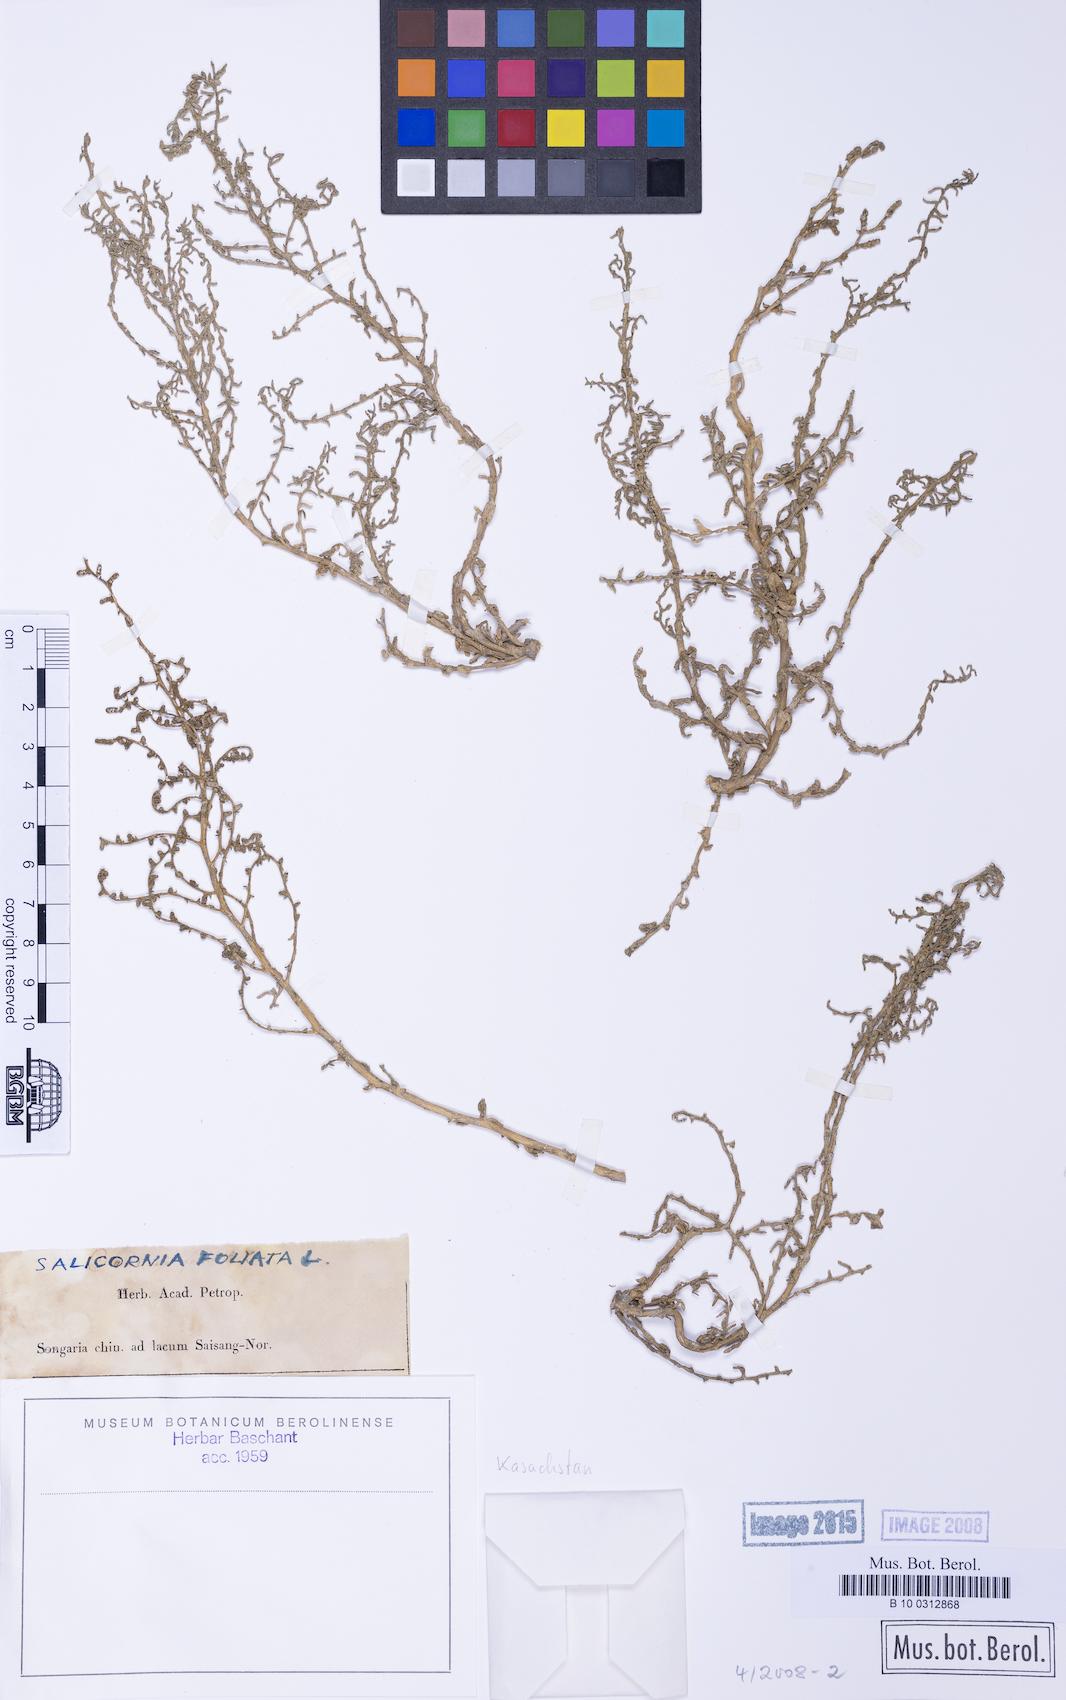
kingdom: Plantae
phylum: Tracheophyta
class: Magnoliopsida
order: Caryophyllales
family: Amaranthaceae
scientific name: Amaranthaceae
